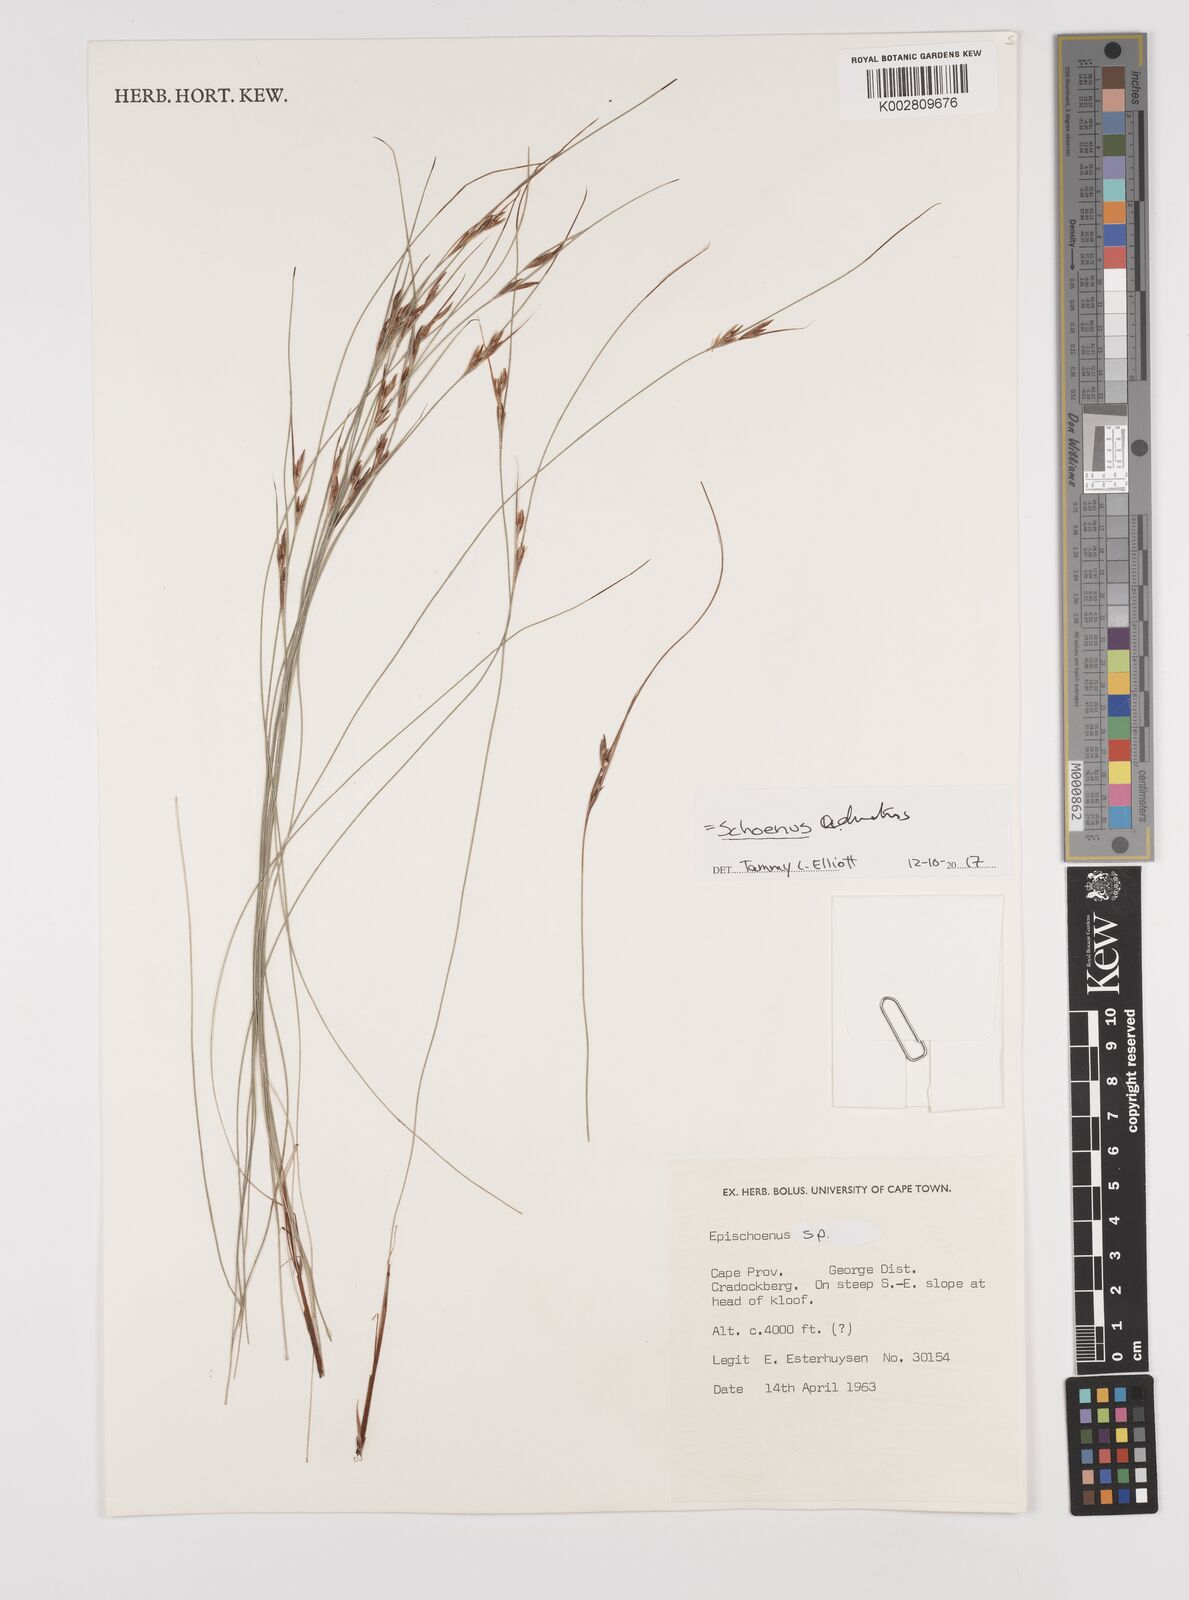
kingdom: Plantae
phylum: Tracheophyta
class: Liliopsida
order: Poales
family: Cyperaceae
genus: Schoenus
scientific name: Schoenus adnatus
